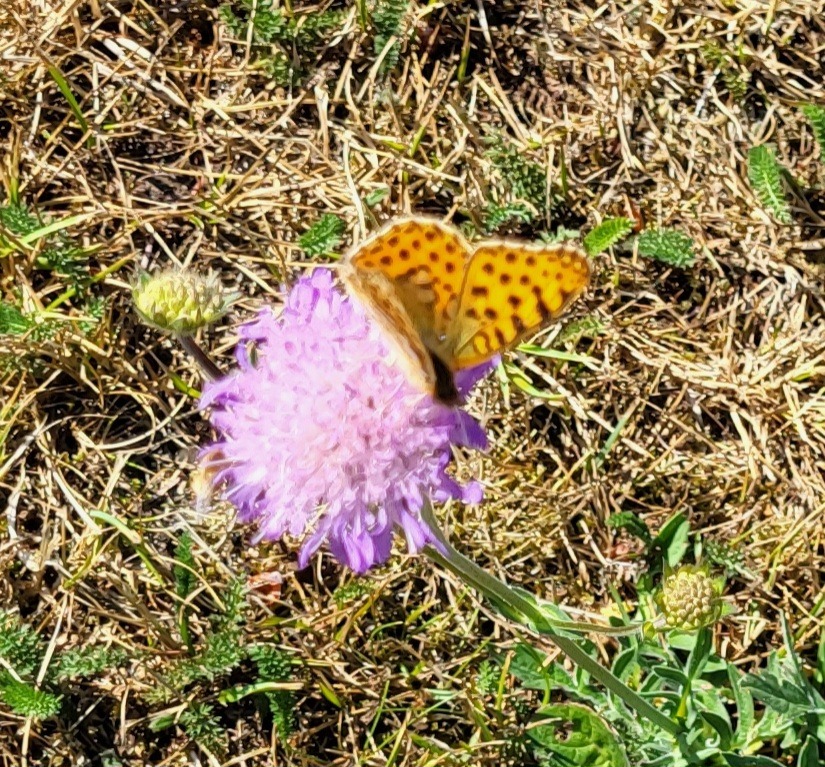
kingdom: Animalia
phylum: Arthropoda
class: Insecta
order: Lepidoptera
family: Nymphalidae
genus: Issoria
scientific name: Issoria lathonia
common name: Storplettet perlemorsommerfugl
